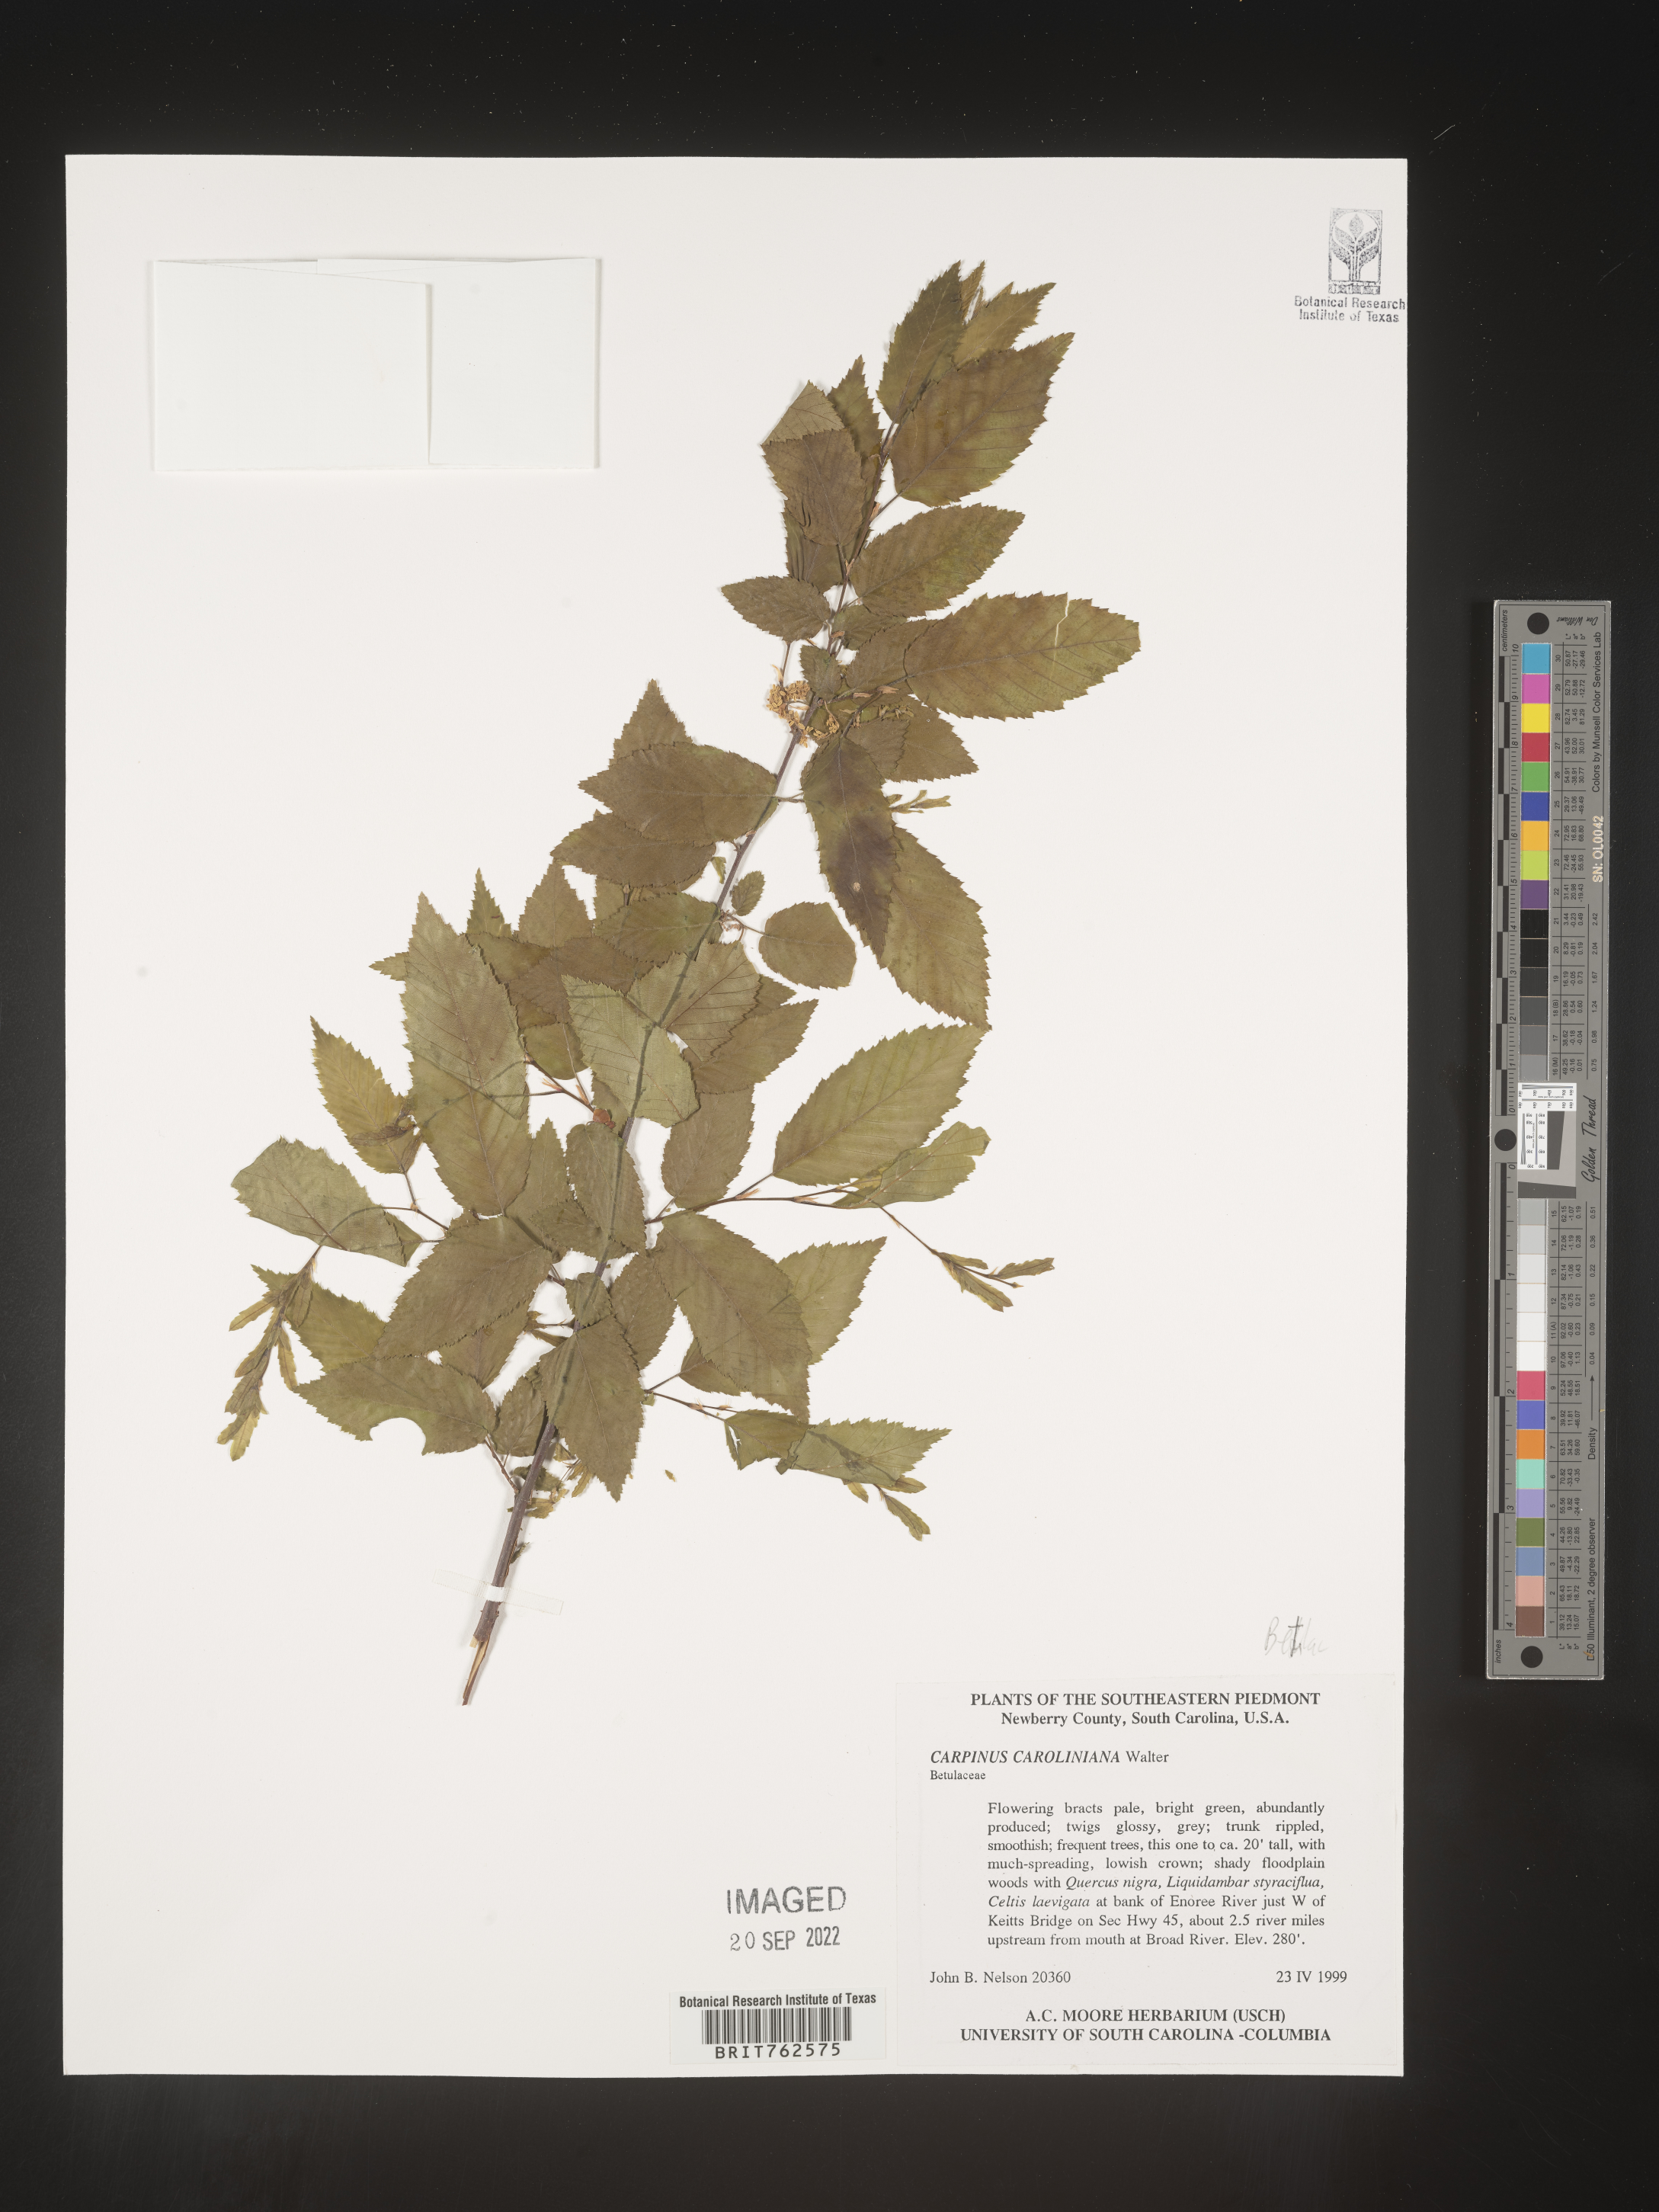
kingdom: Plantae
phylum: Tracheophyta
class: Magnoliopsida
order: Fagales
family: Betulaceae
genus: Carpinus
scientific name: Carpinus caroliniana
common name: American hornbeam
